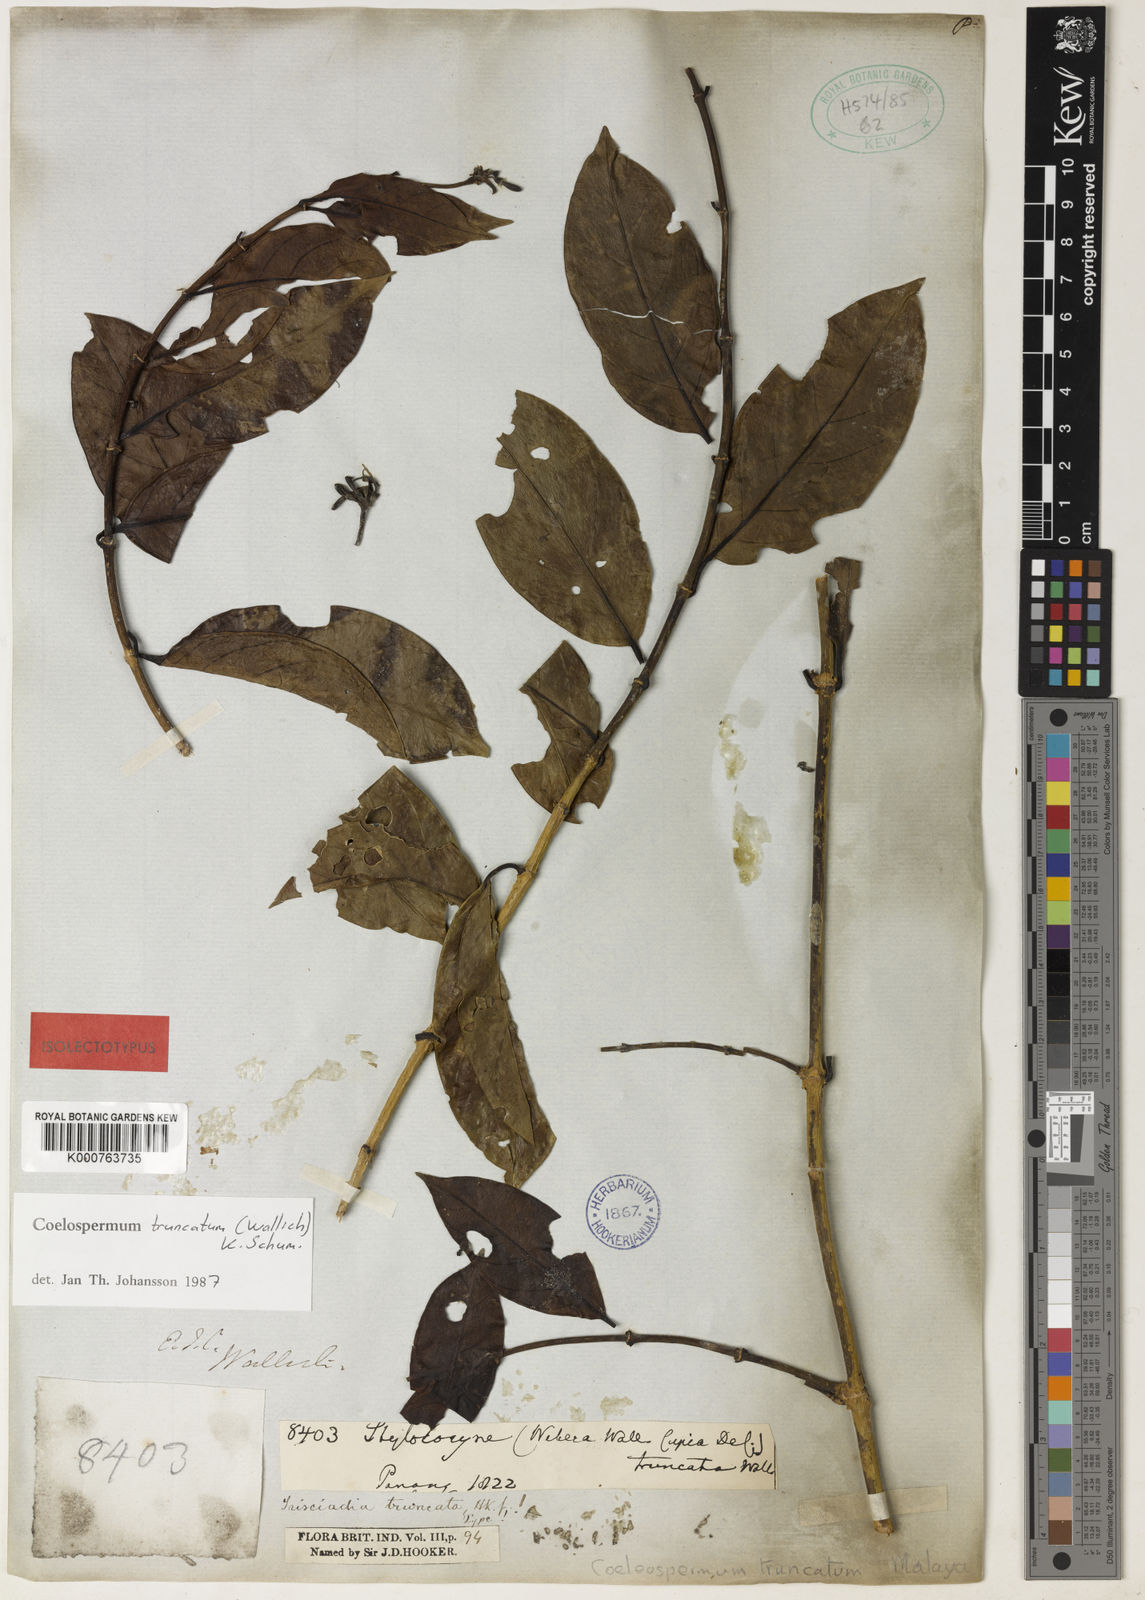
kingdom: Plantae
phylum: Tracheophyta
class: Magnoliopsida
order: Gentianales
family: Rubiaceae
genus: Coelospermum
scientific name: Coelospermum truncatum
